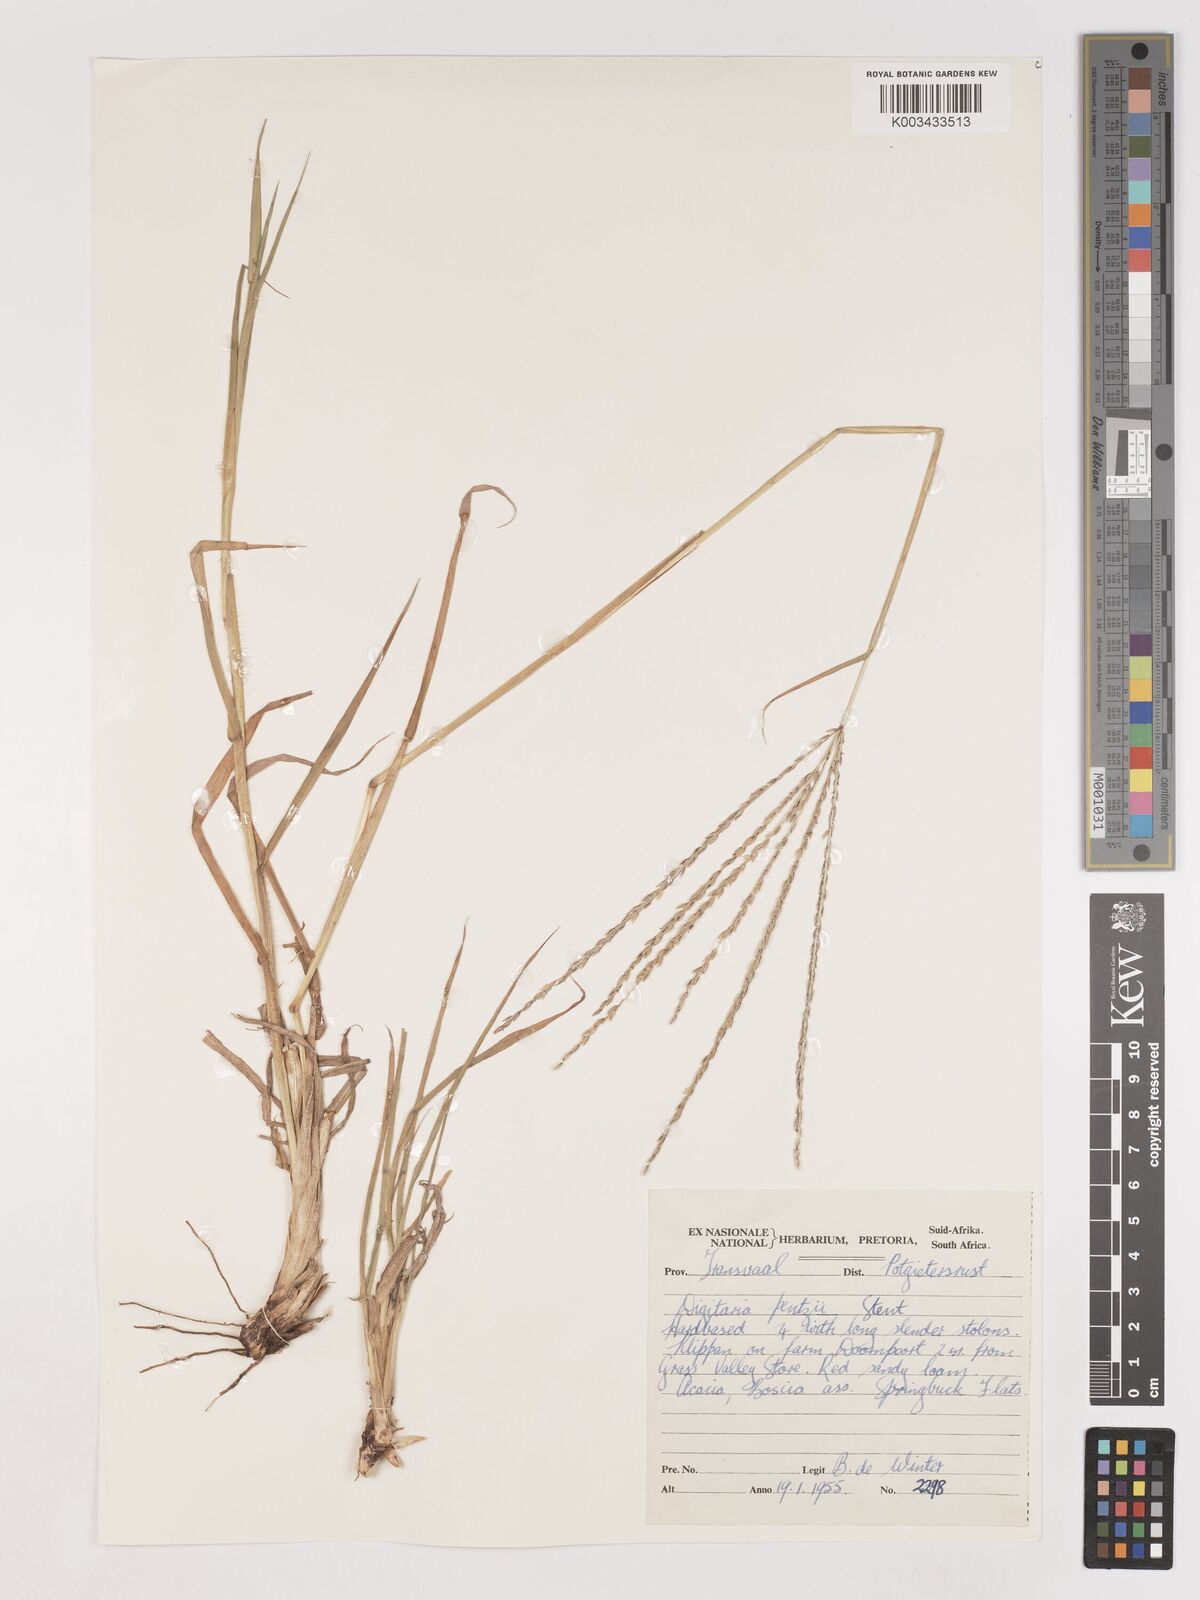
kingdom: Plantae
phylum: Tracheophyta
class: Liliopsida
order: Poales
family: Poaceae
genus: Digitaria
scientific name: Digitaria eriantha
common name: Digitgrass
